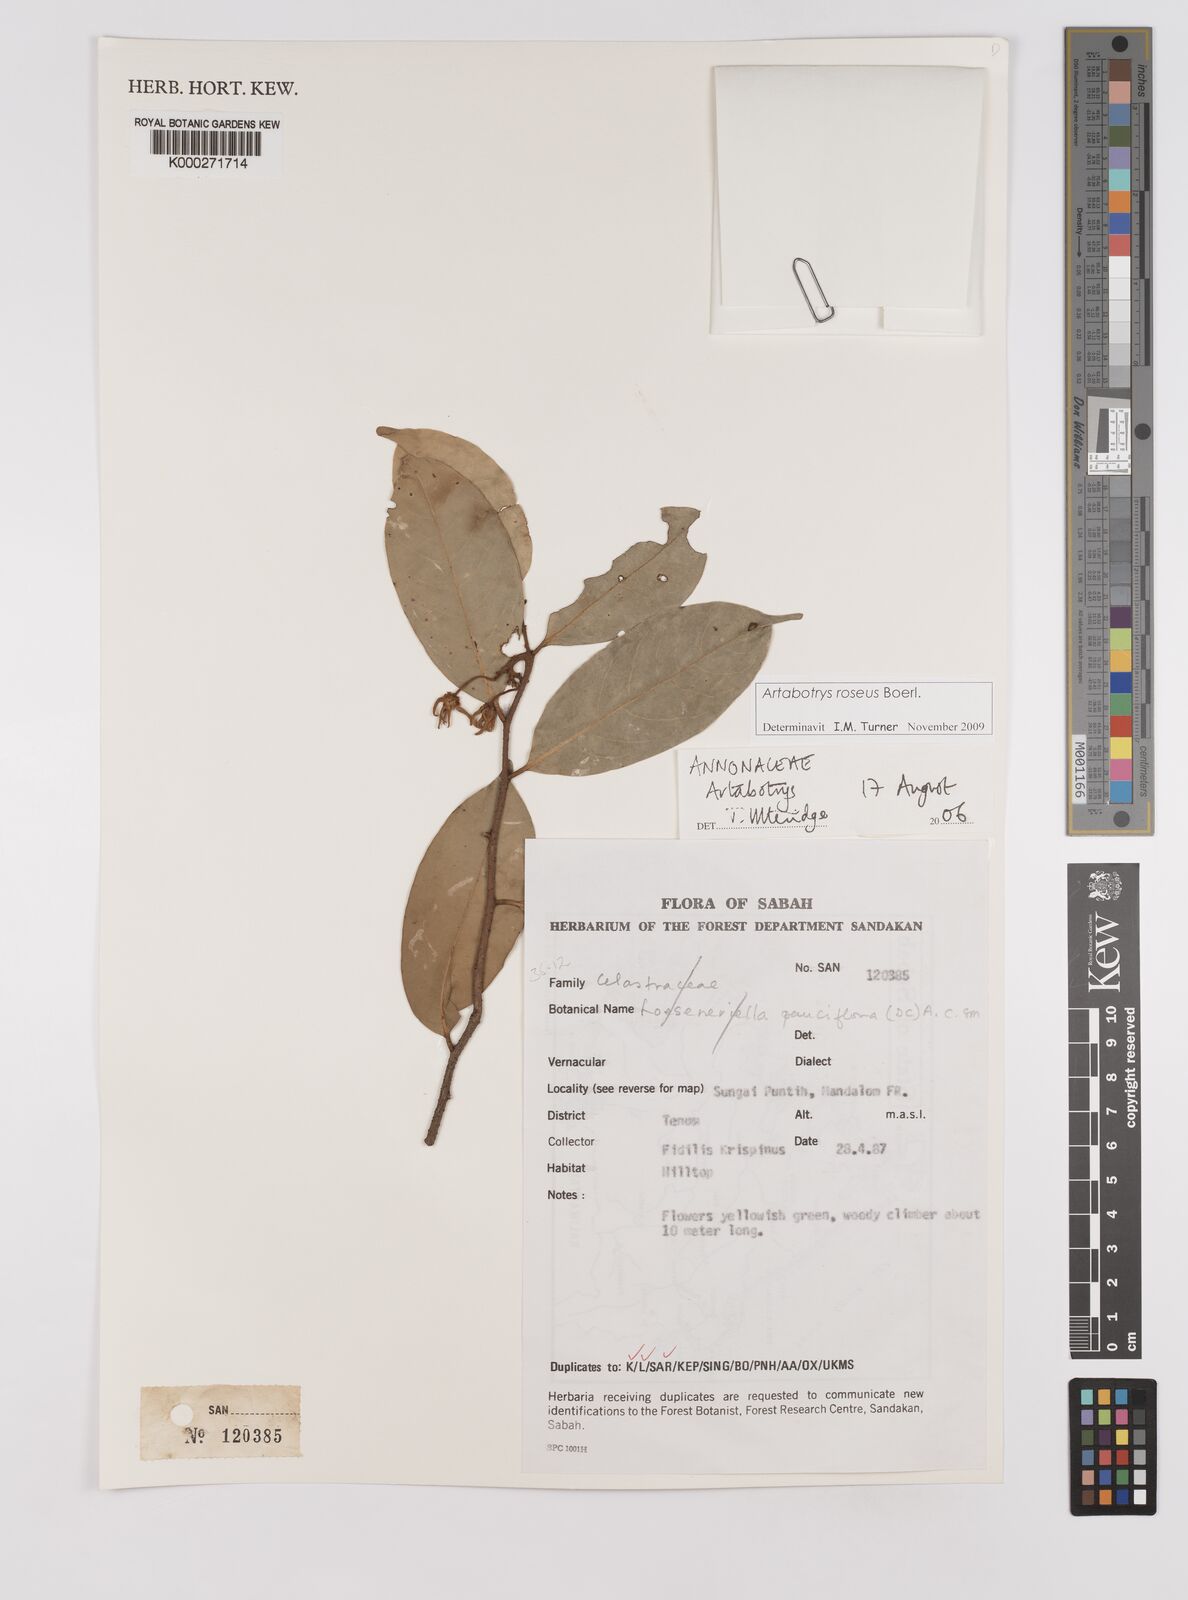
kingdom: Plantae
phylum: Tracheophyta
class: Magnoliopsida
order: Magnoliales
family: Annonaceae
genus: Artabotrys
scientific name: Artabotrys
